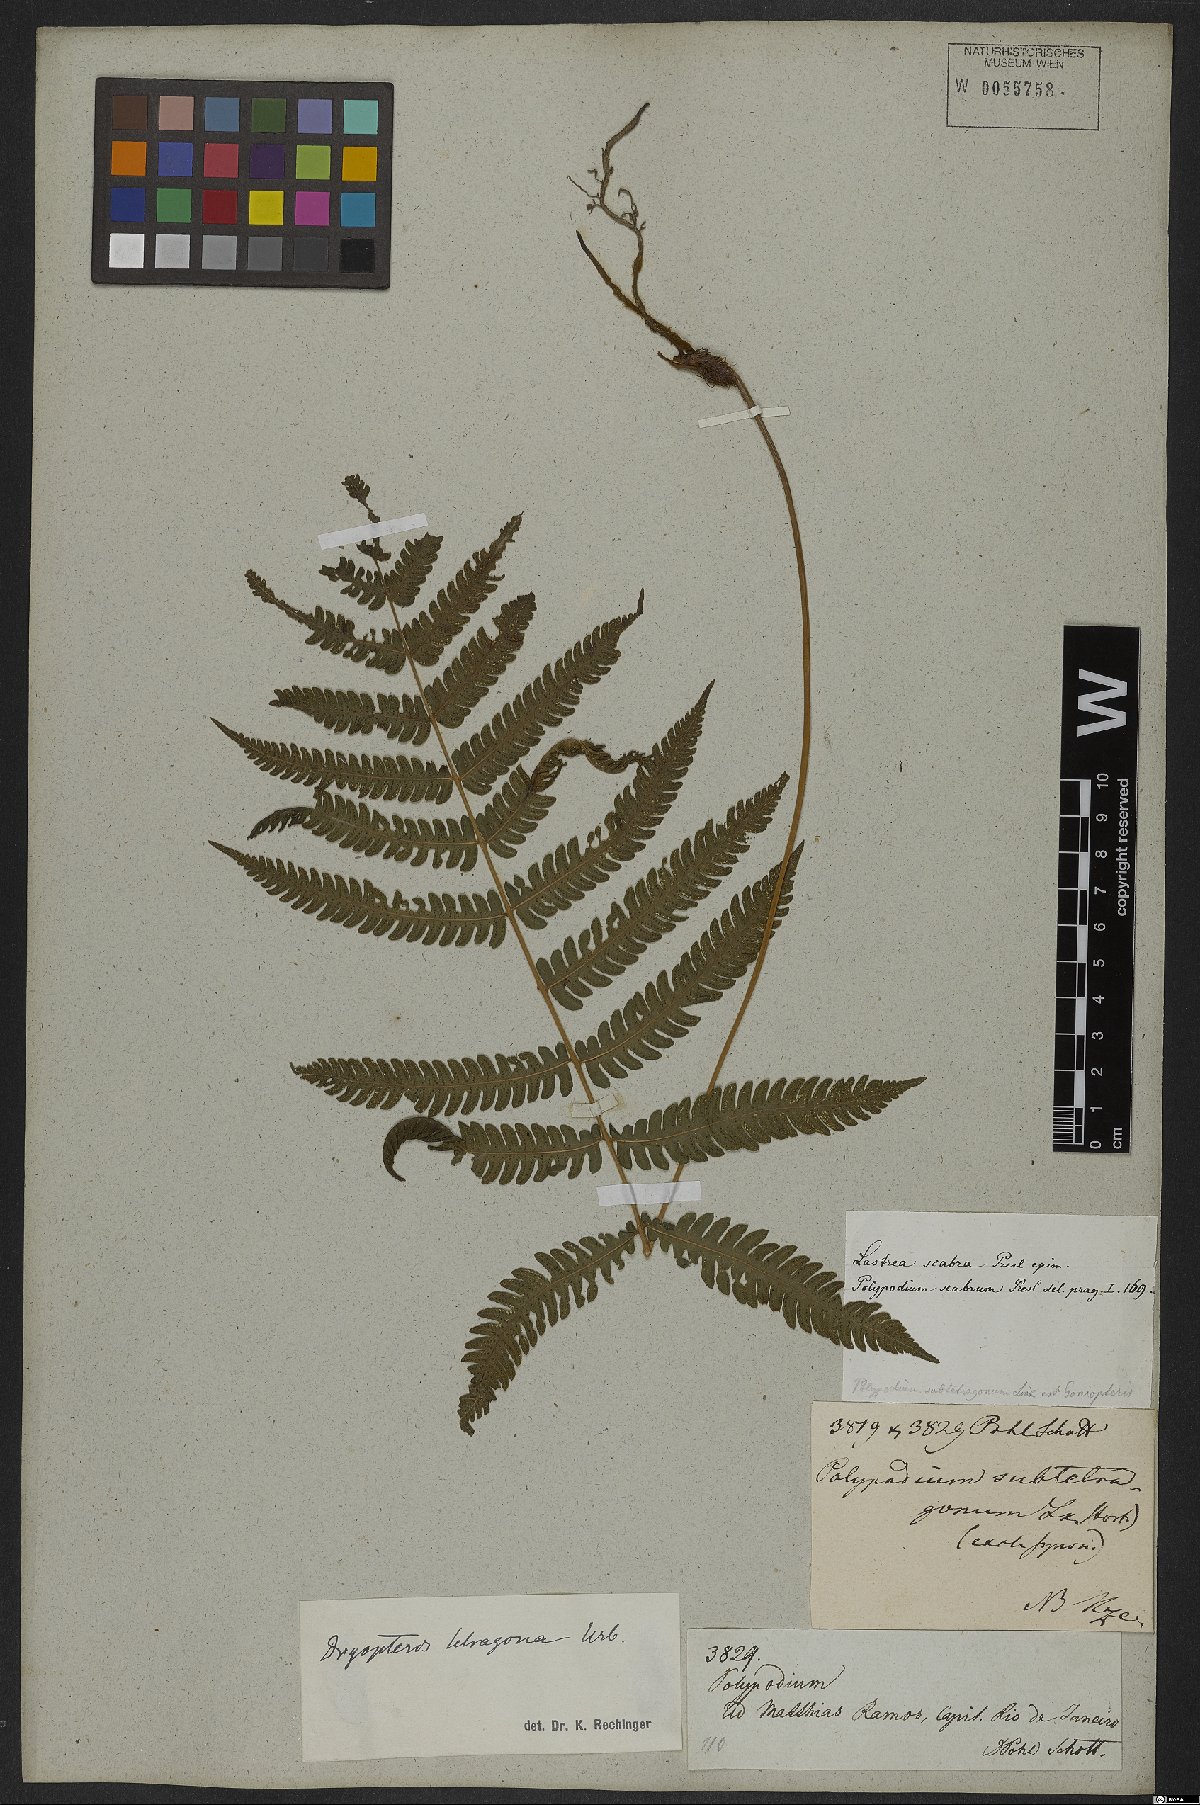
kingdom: Plantae
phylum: Tracheophyta
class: Polypodiopsida
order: Polypodiales
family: Thelypteridaceae
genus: Goniopteris
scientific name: Goniopteris lugubris
